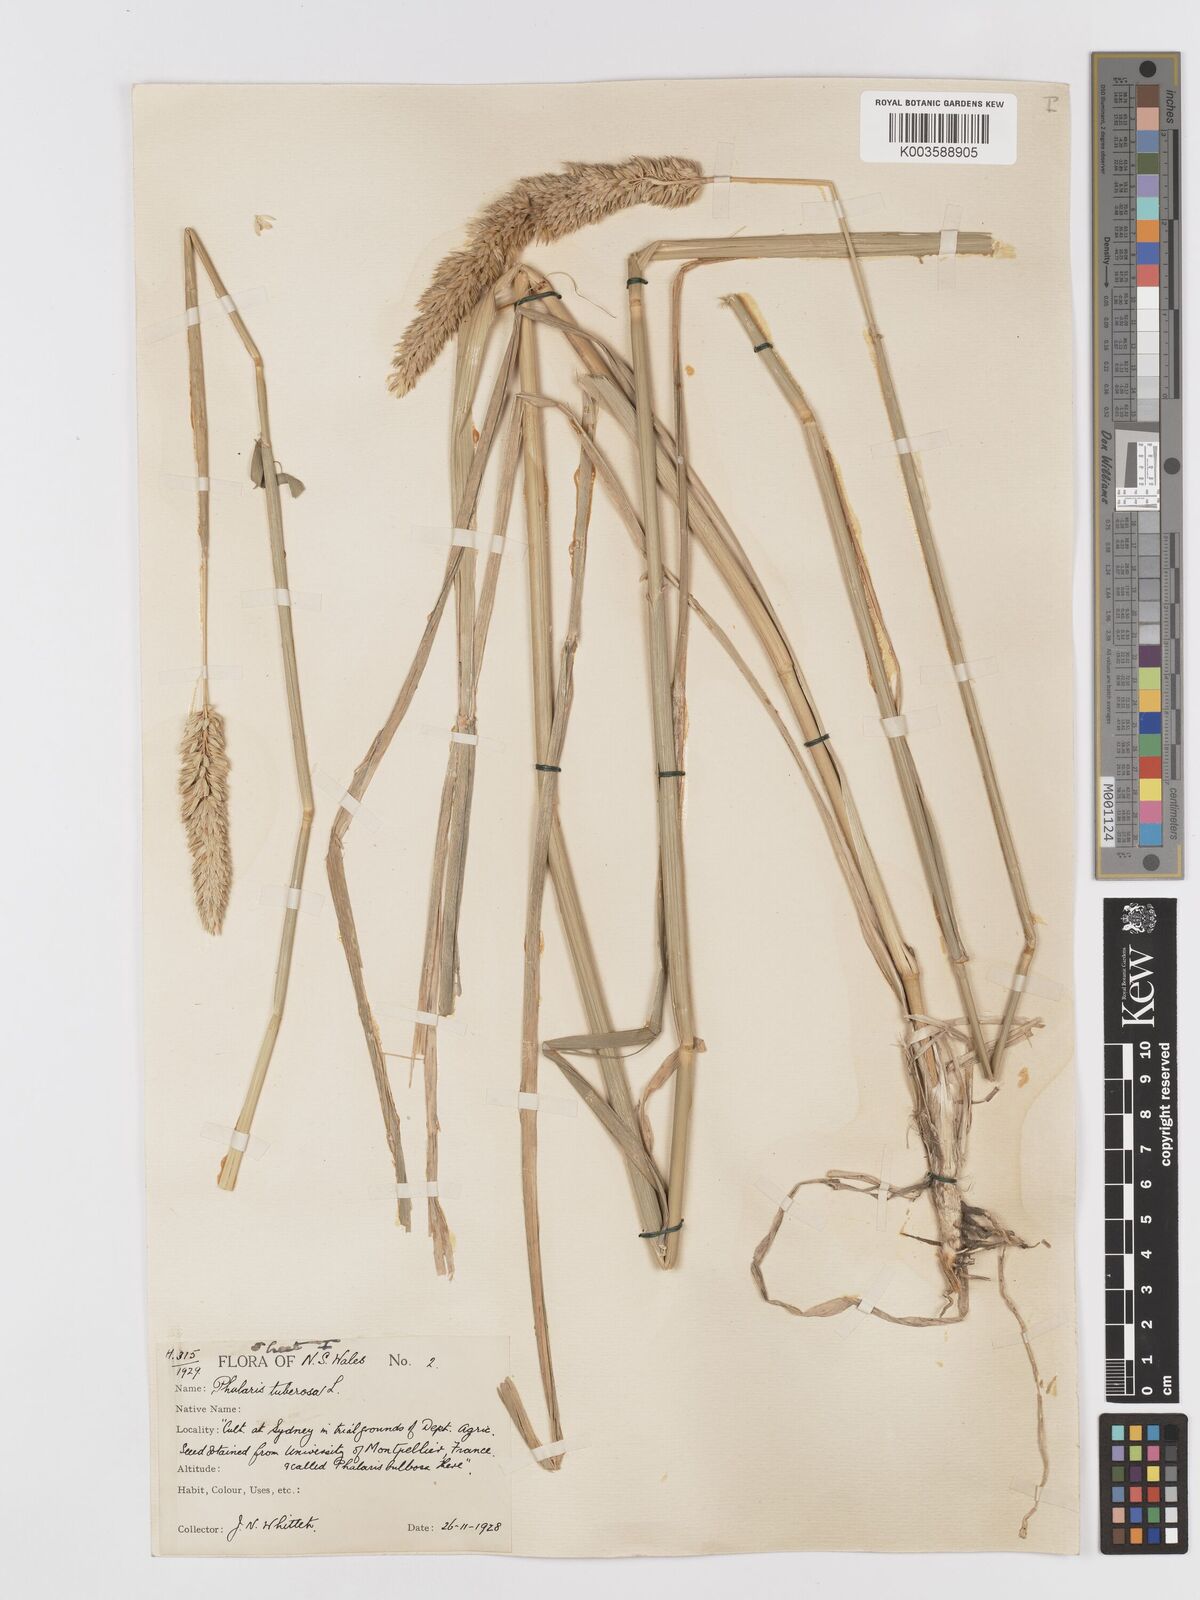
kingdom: Plantae
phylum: Tracheophyta
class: Liliopsida
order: Poales
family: Poaceae
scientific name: Poaceae
